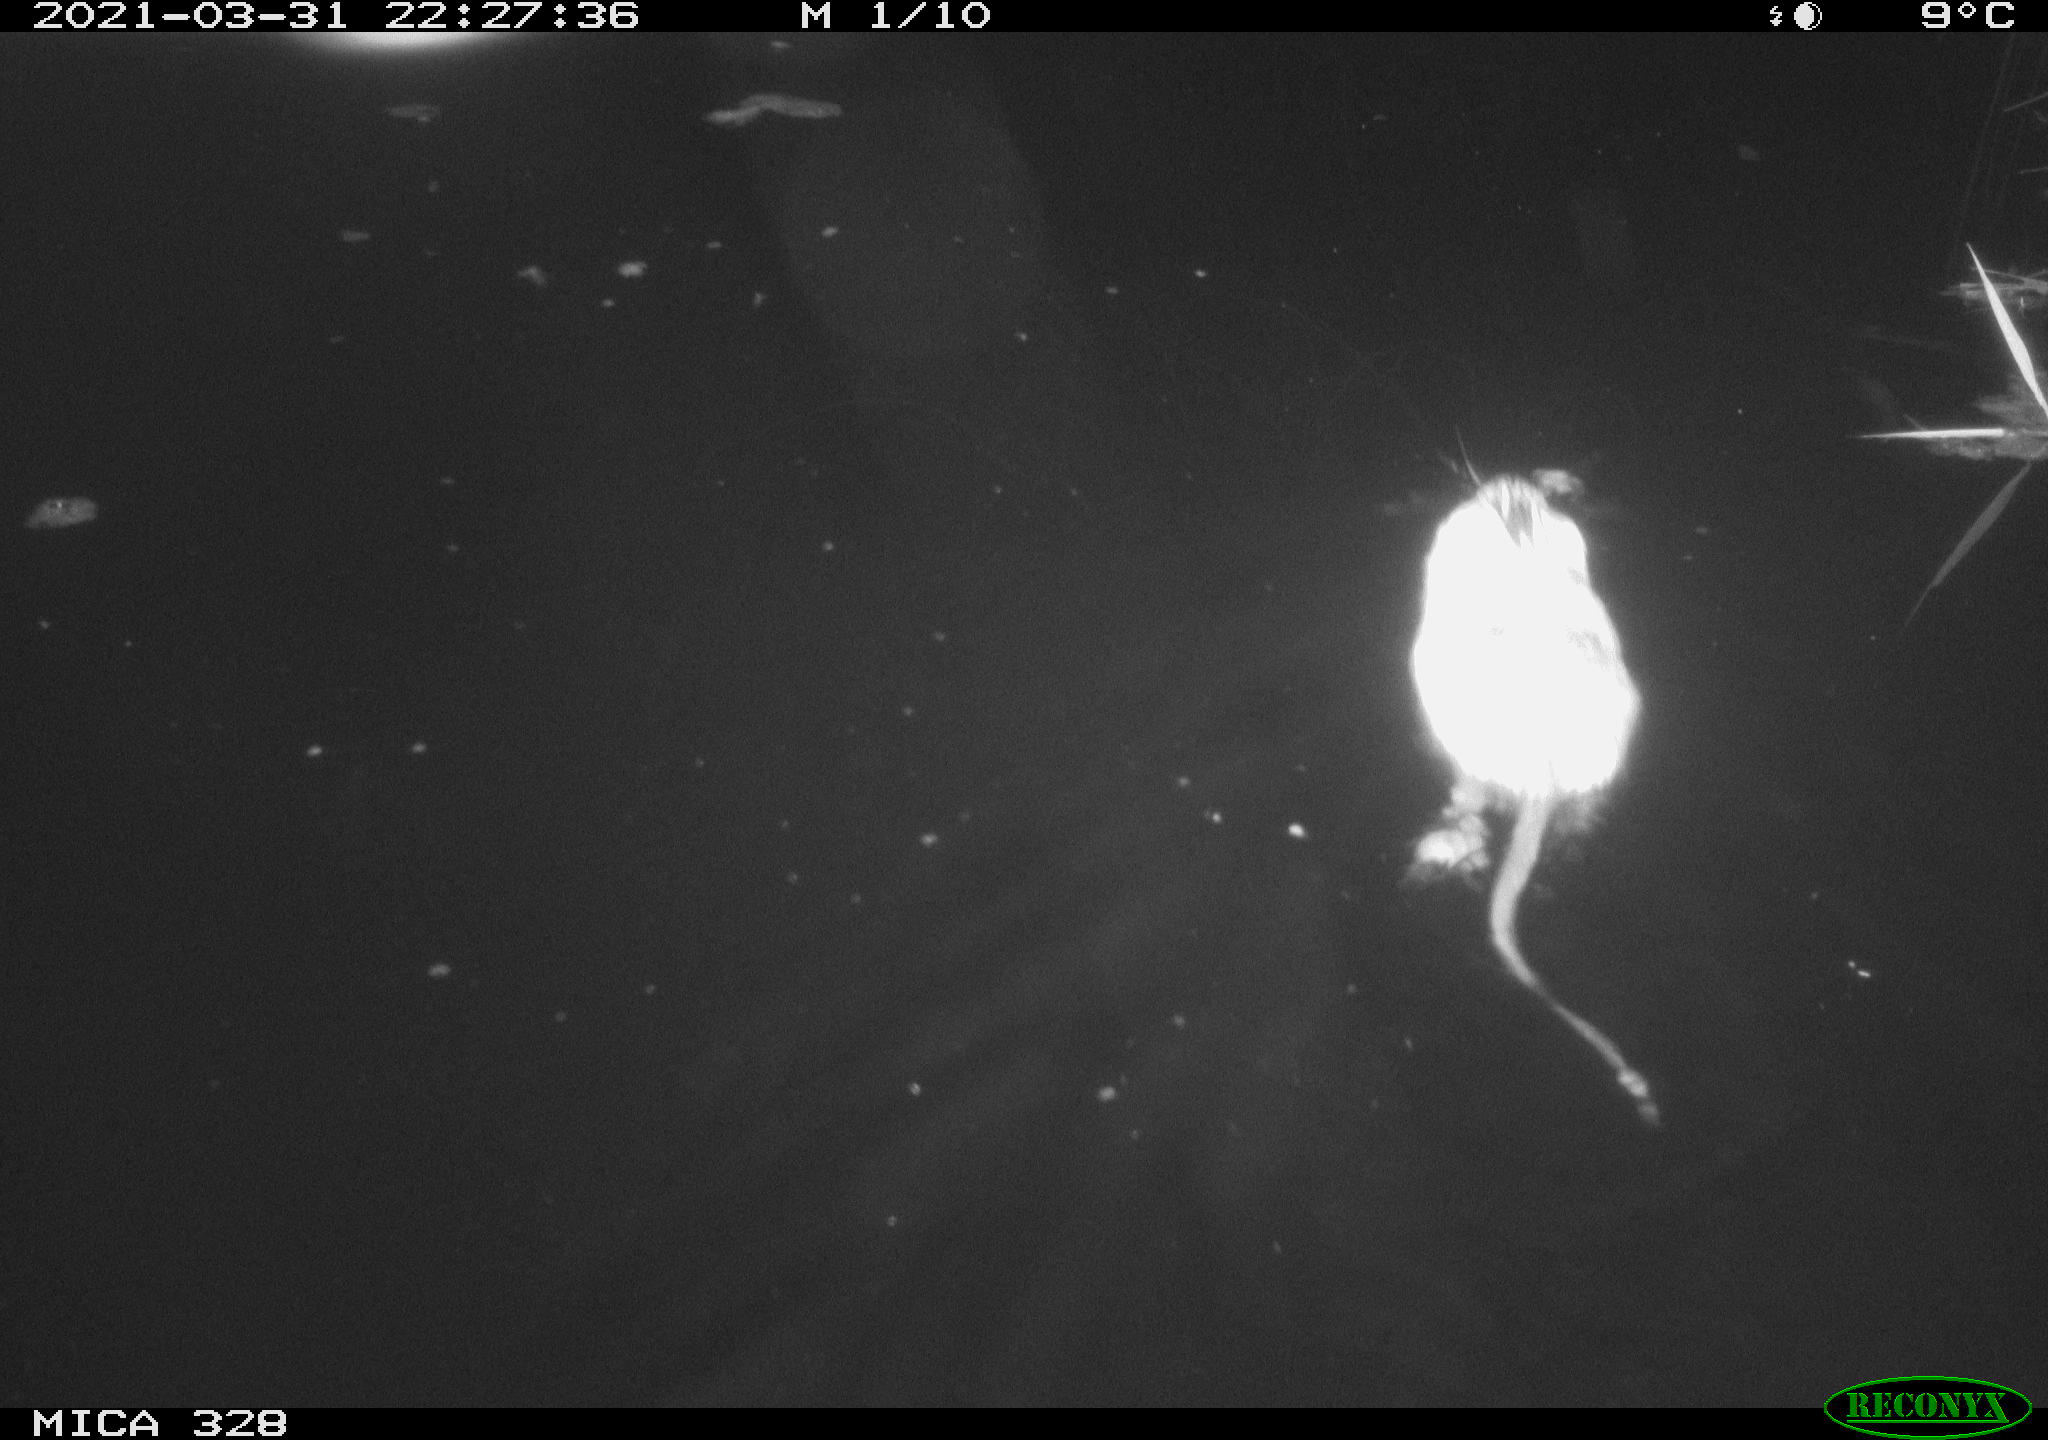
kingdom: Animalia
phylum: Chordata
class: Mammalia
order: Rodentia
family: Cricetidae
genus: Ondatra
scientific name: Ondatra zibethicus
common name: Muskrat
